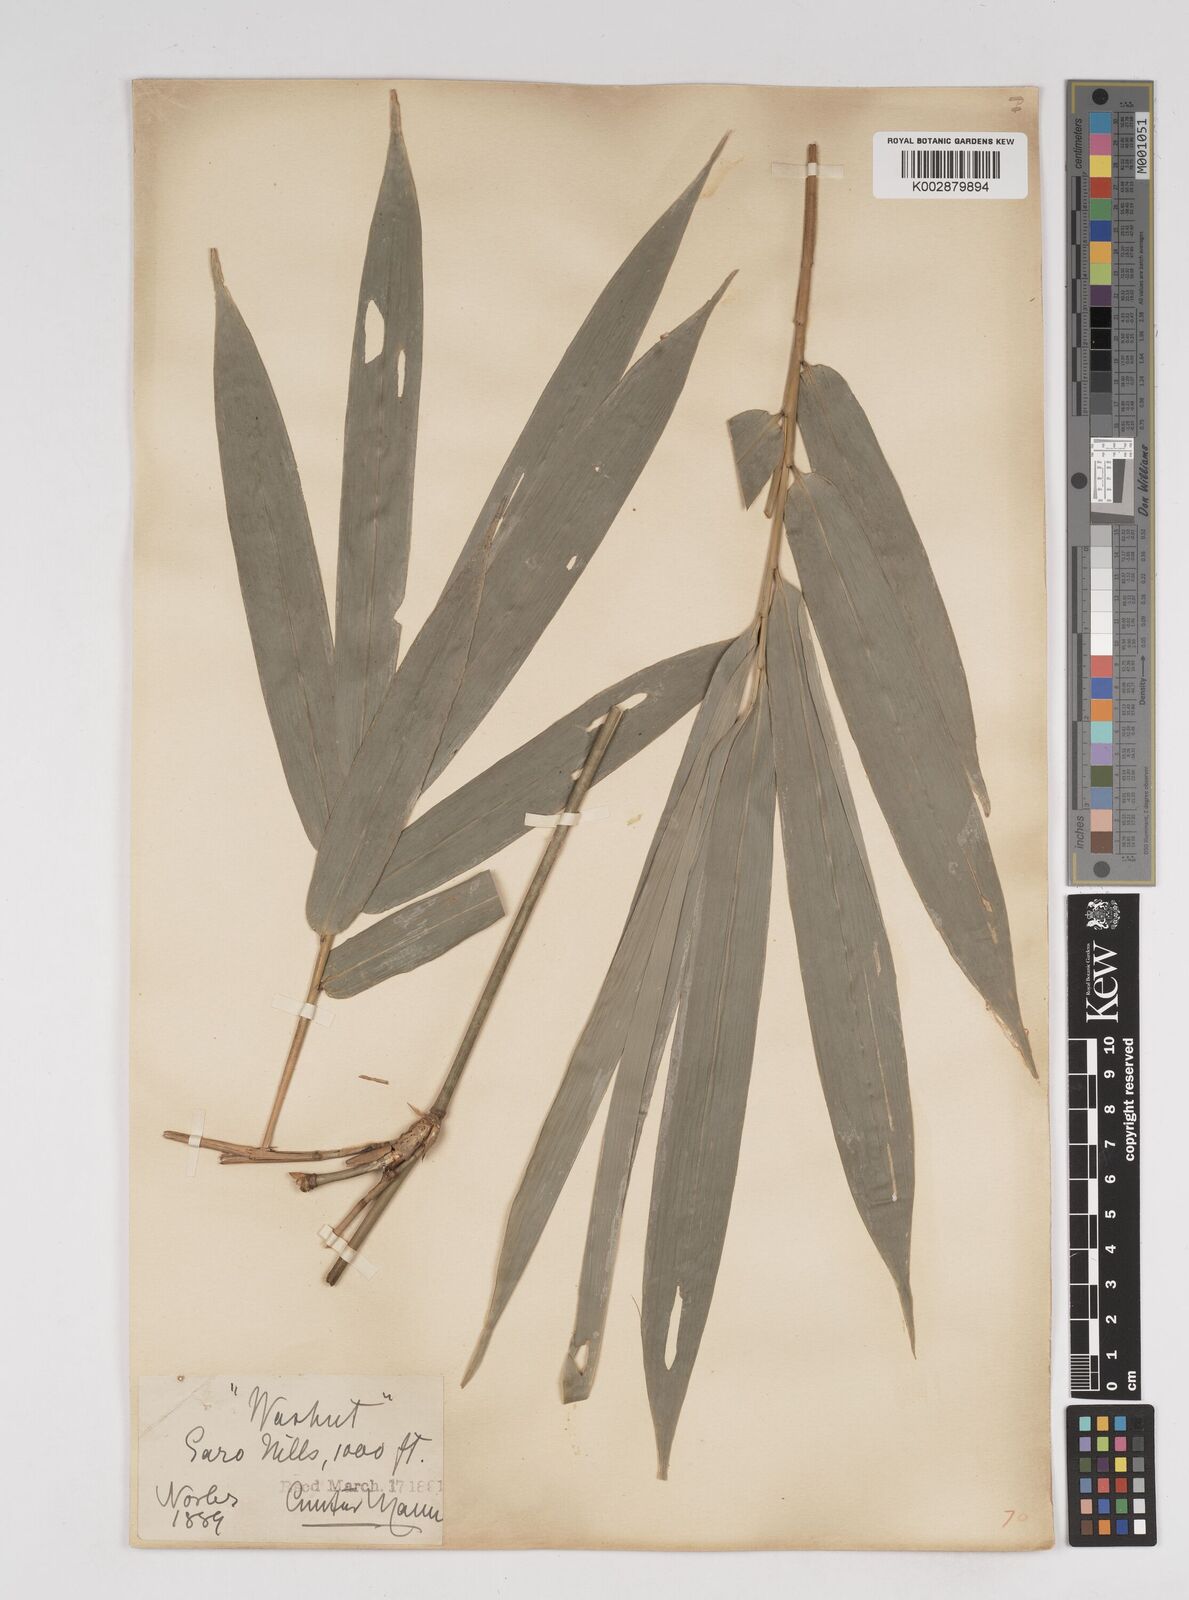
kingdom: Plantae
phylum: Tracheophyta
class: Liliopsida
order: Poales
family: Poaceae
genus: Gigantochloa
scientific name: Gigantochloa
